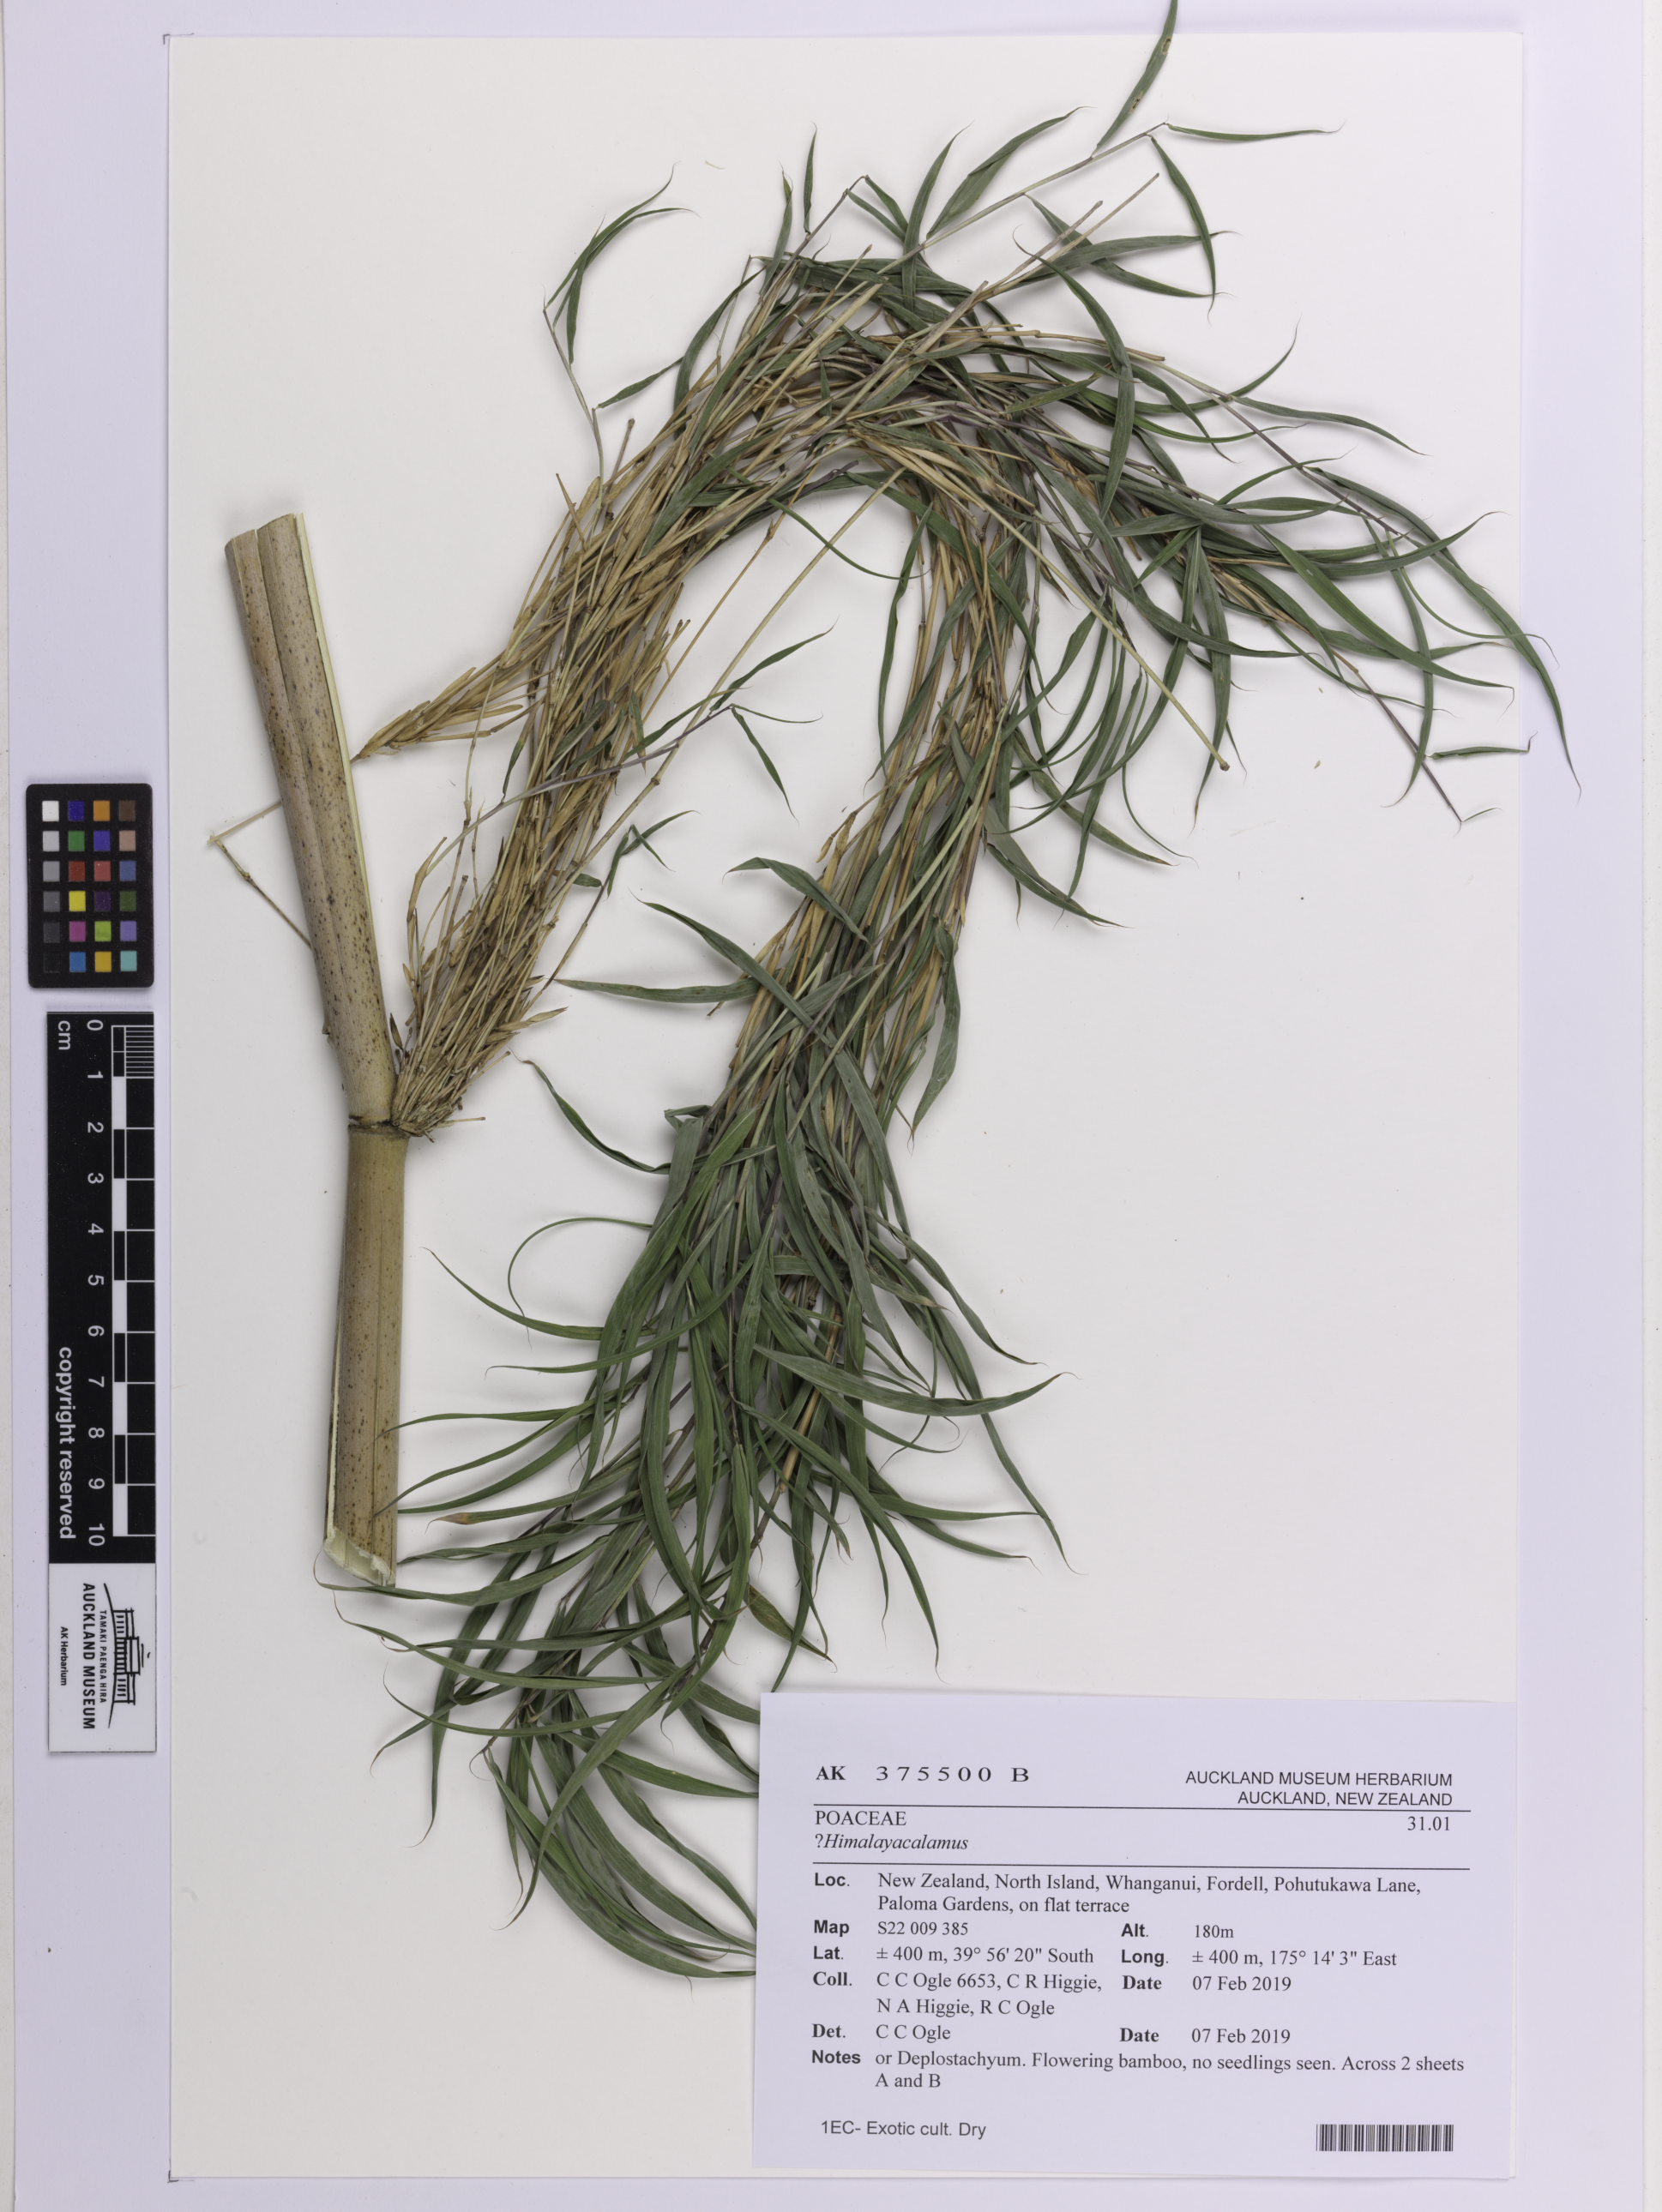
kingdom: Plantae
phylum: Tracheophyta
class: Liliopsida
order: Poales
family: Poaceae
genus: Himalayacalamus
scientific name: Himalayacalamus
